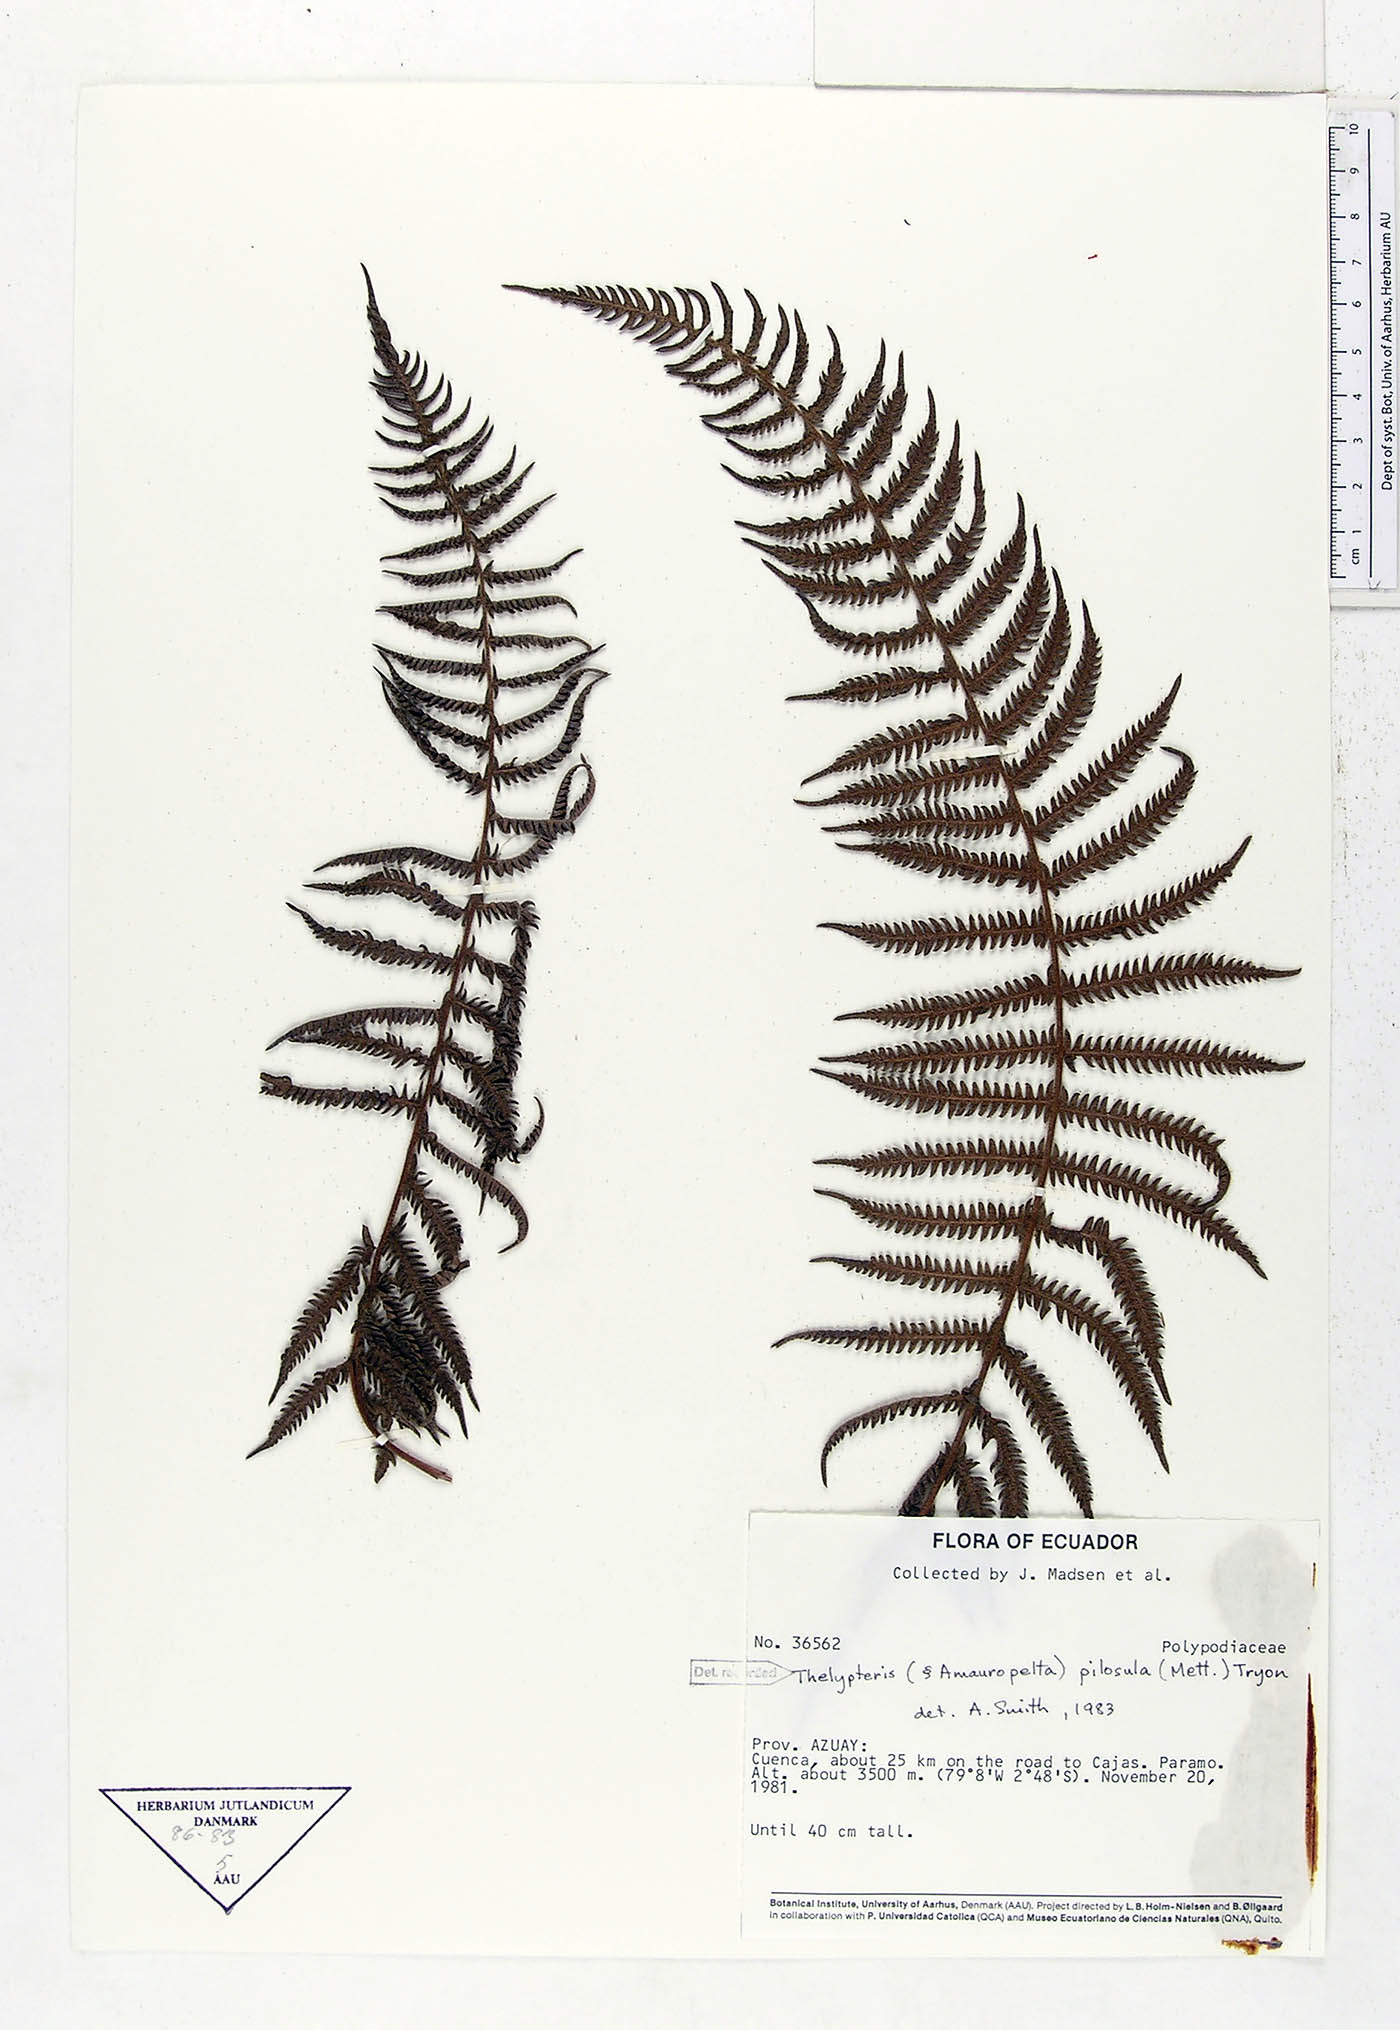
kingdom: Plantae
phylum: Tracheophyta
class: Polypodiopsida
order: Polypodiales
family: Thelypteridaceae
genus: Amauropelta
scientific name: Amauropelta pilosula
